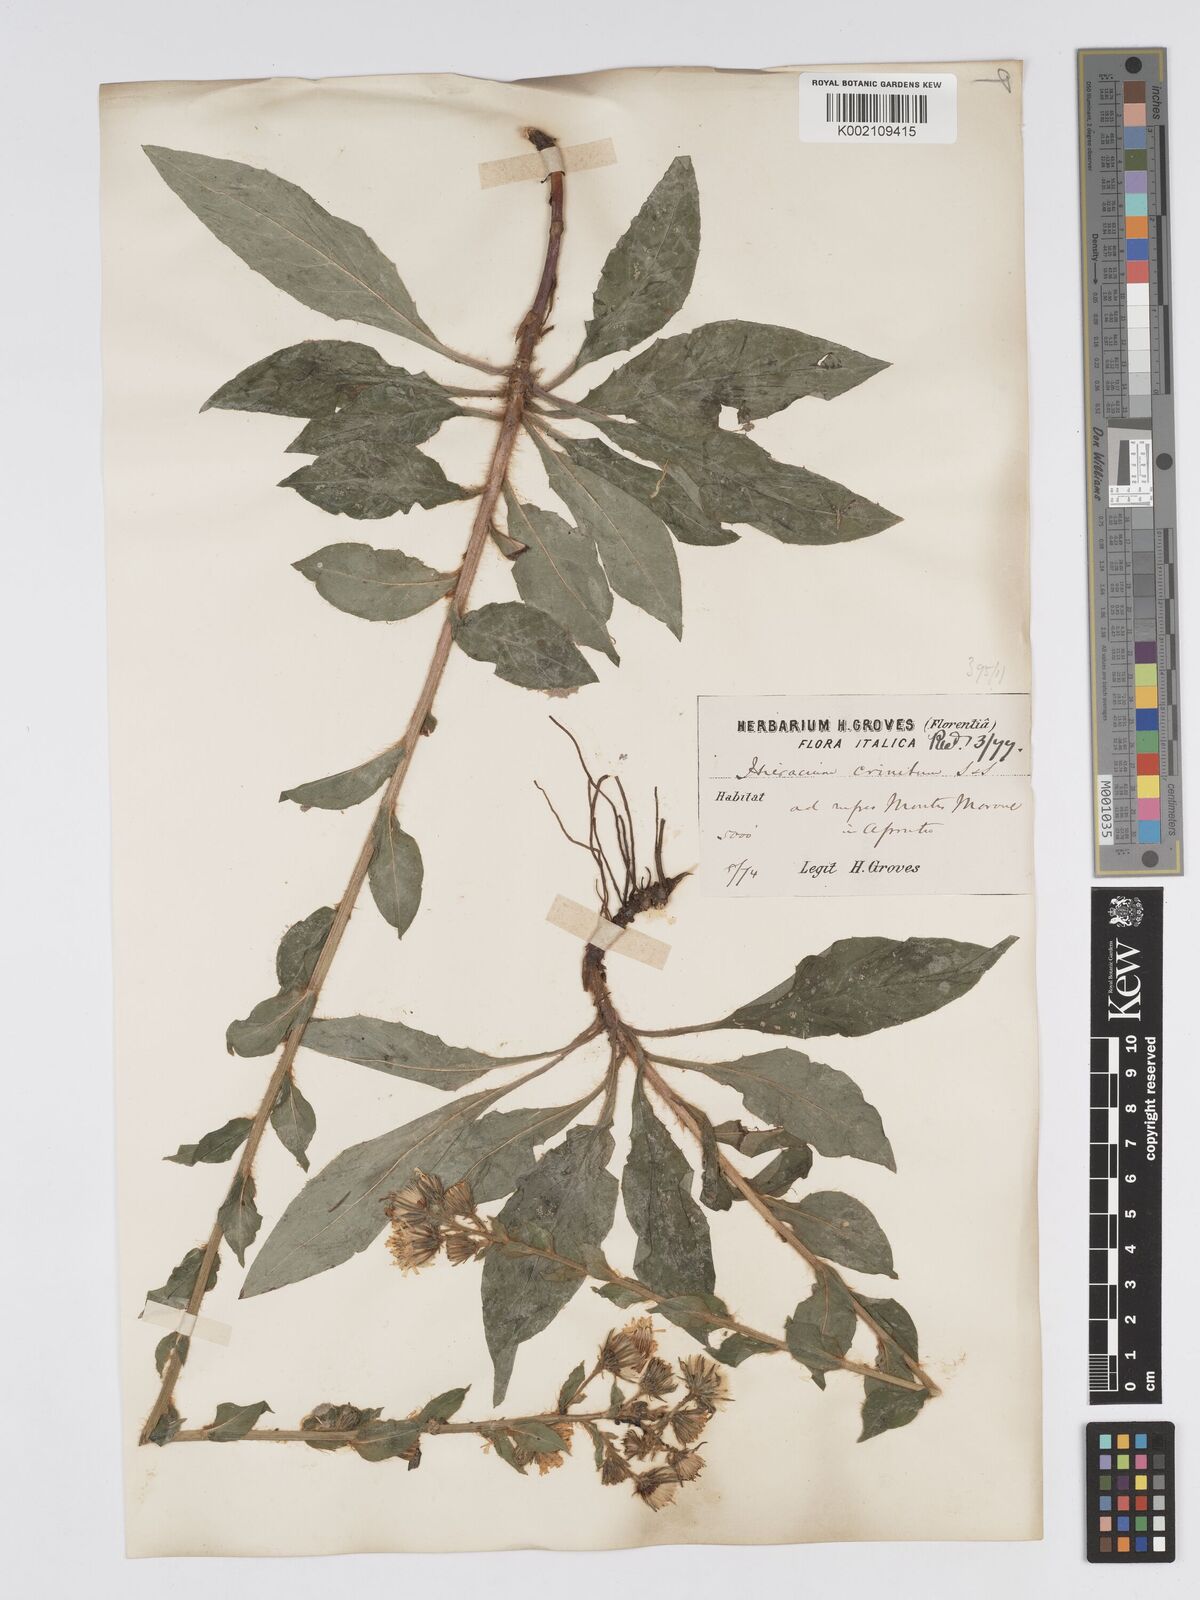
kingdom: Plantae
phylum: Tracheophyta
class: Magnoliopsida
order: Asterales
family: Asteraceae
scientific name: Asteraceae
